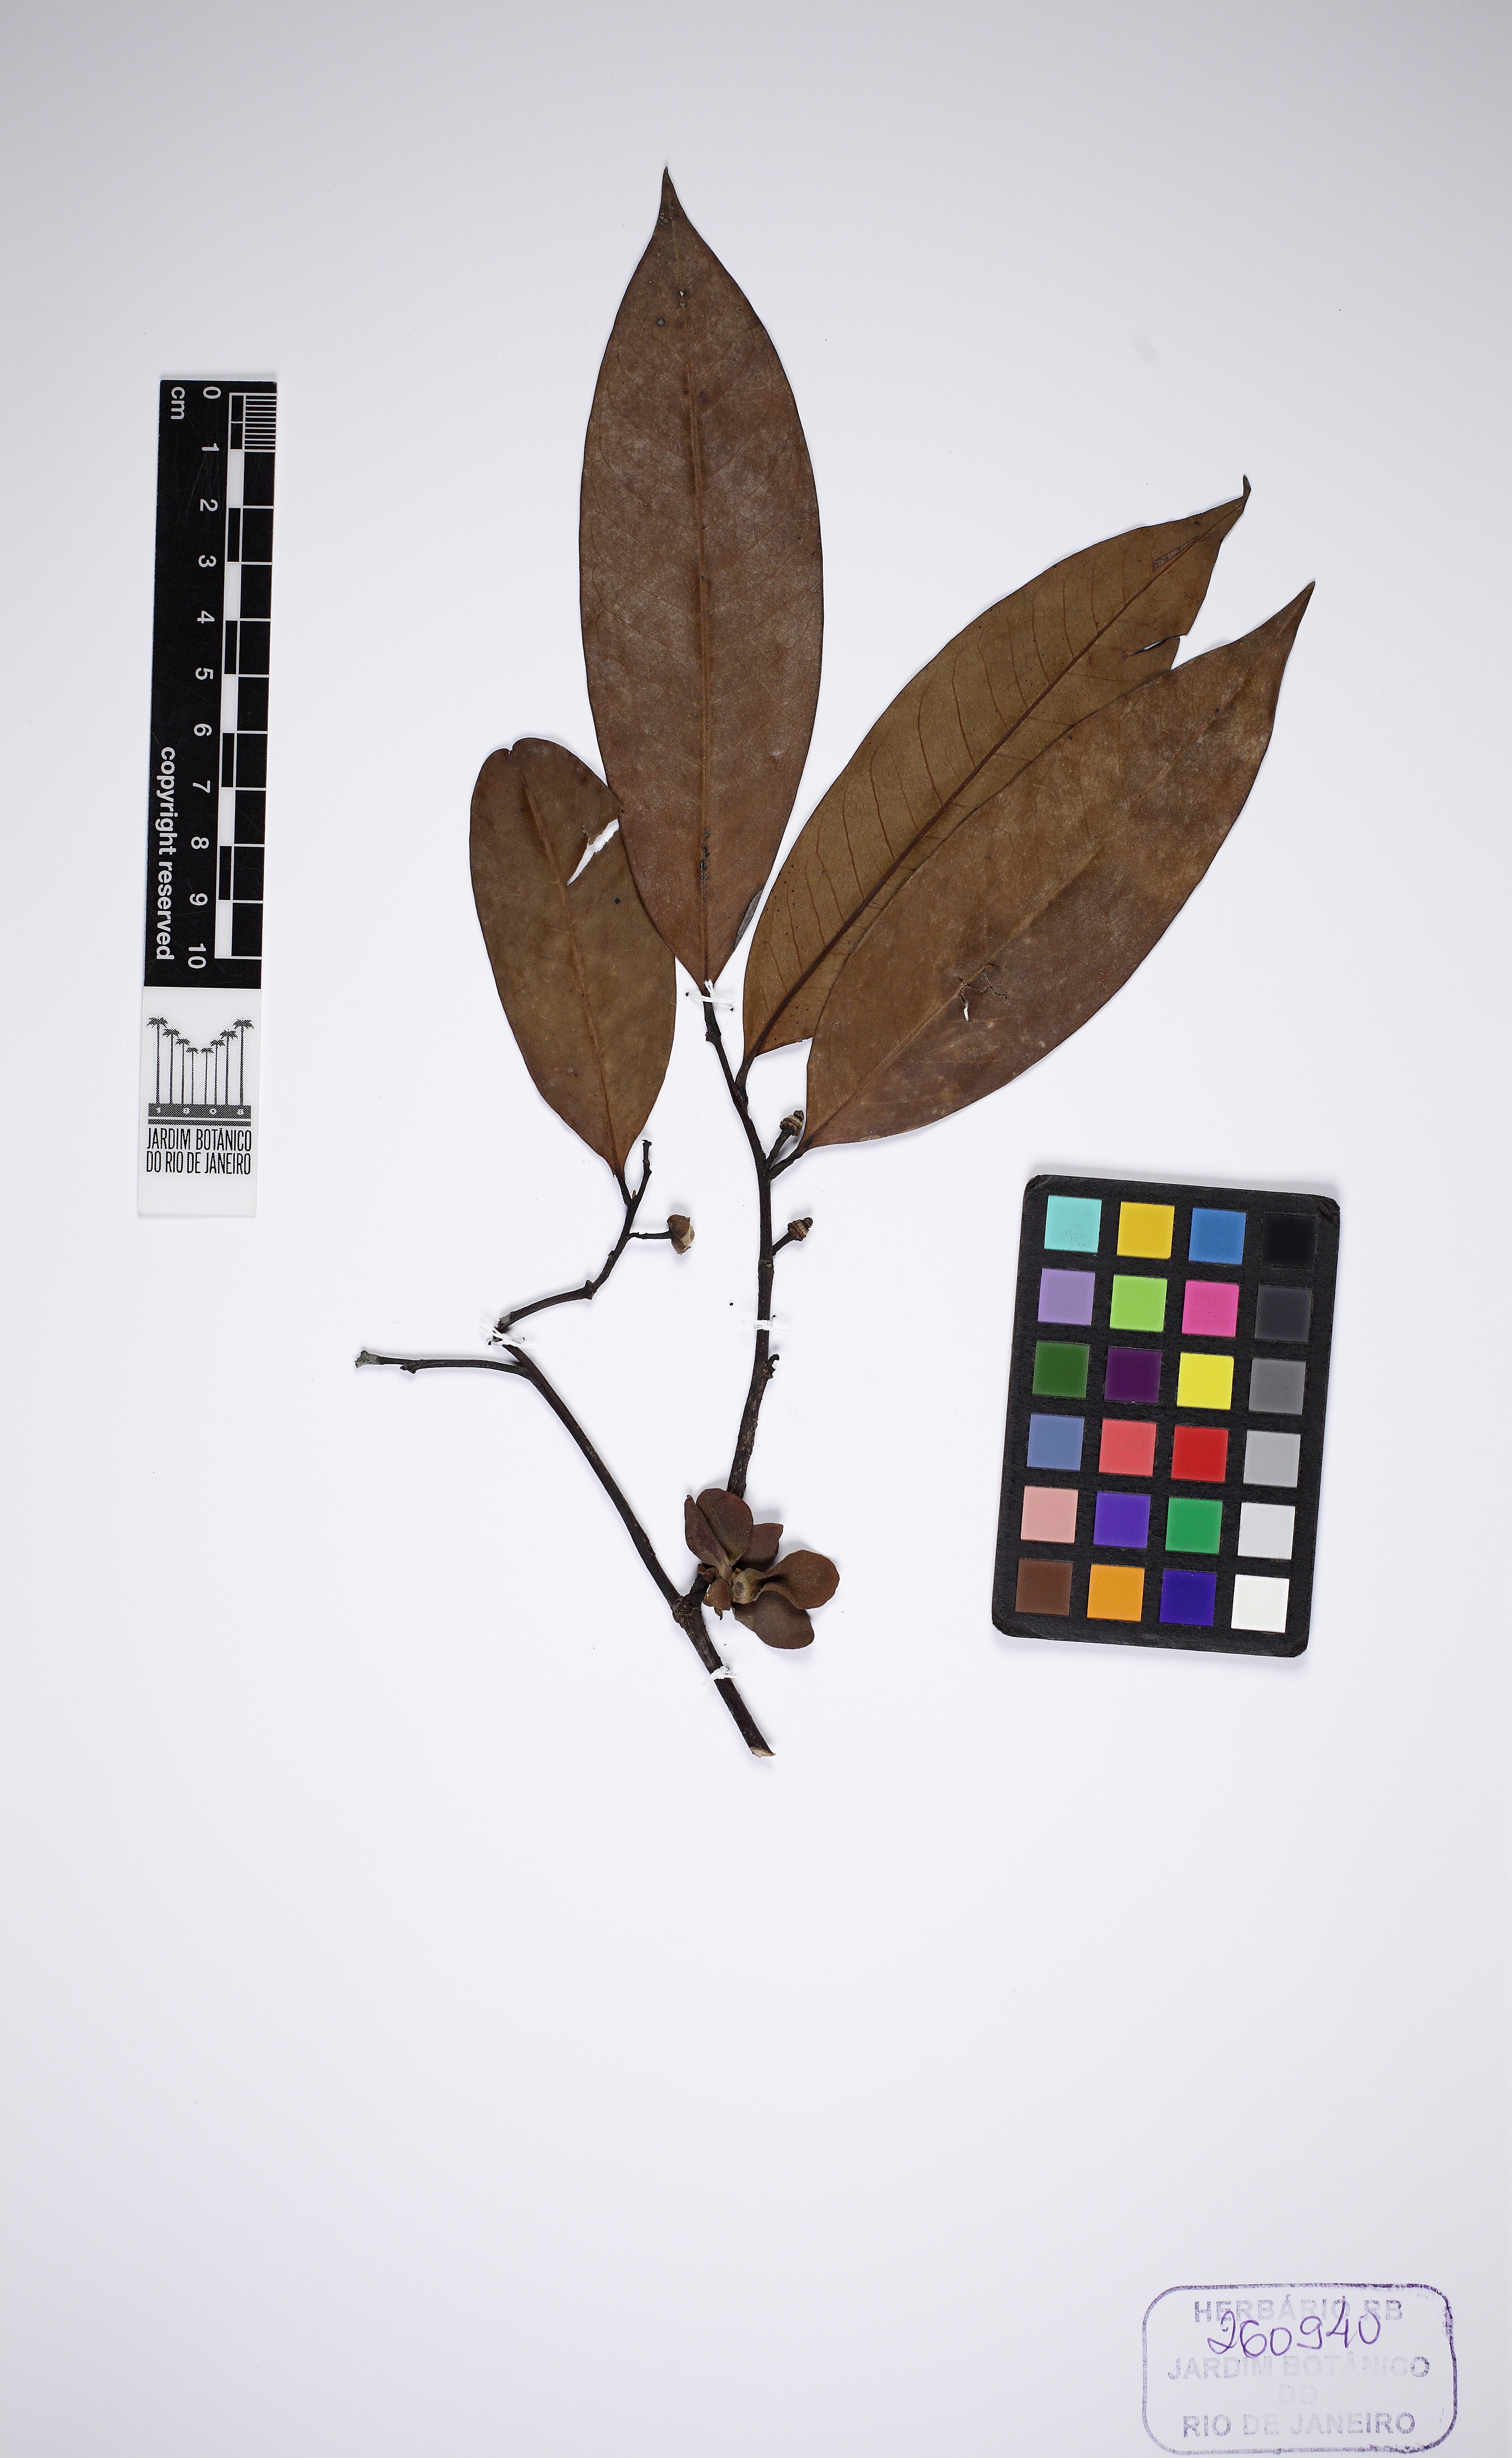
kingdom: Plantae
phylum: Tracheophyta
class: Magnoliopsida
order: Magnoliales
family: Annonaceae
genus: Guatteria
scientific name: Guatteria poeppigiana
